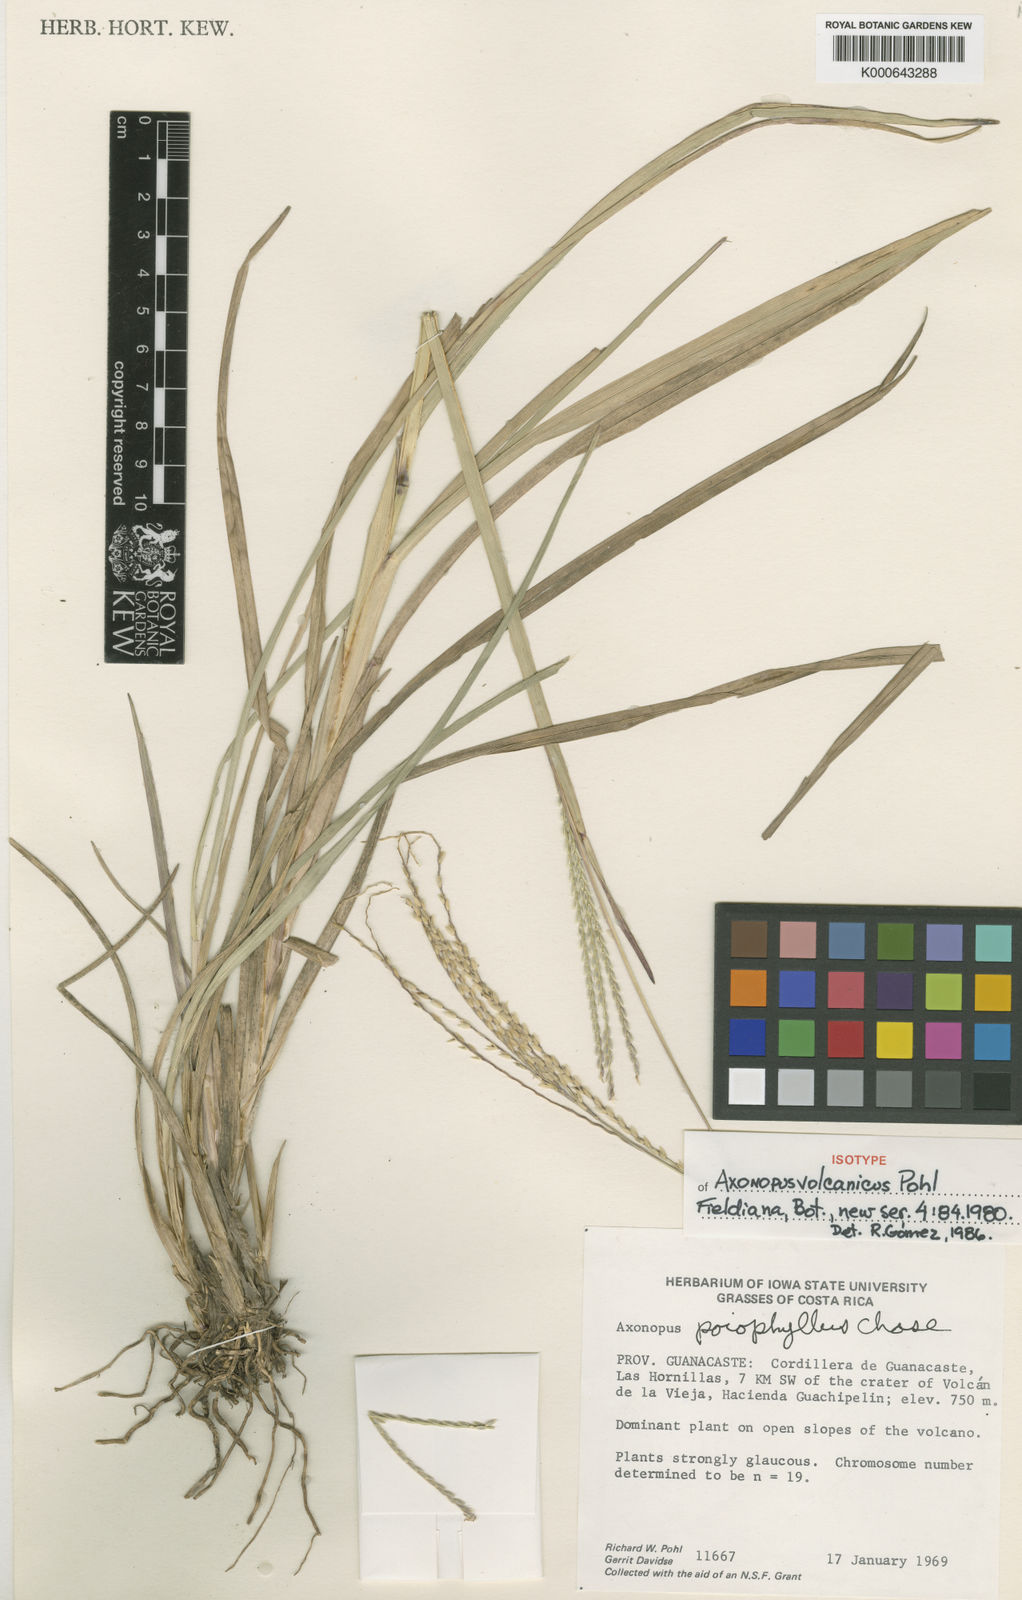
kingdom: Plantae
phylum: Tracheophyta
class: Liliopsida
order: Poales
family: Poaceae
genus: Axonopus
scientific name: Axonopus volcanicus
